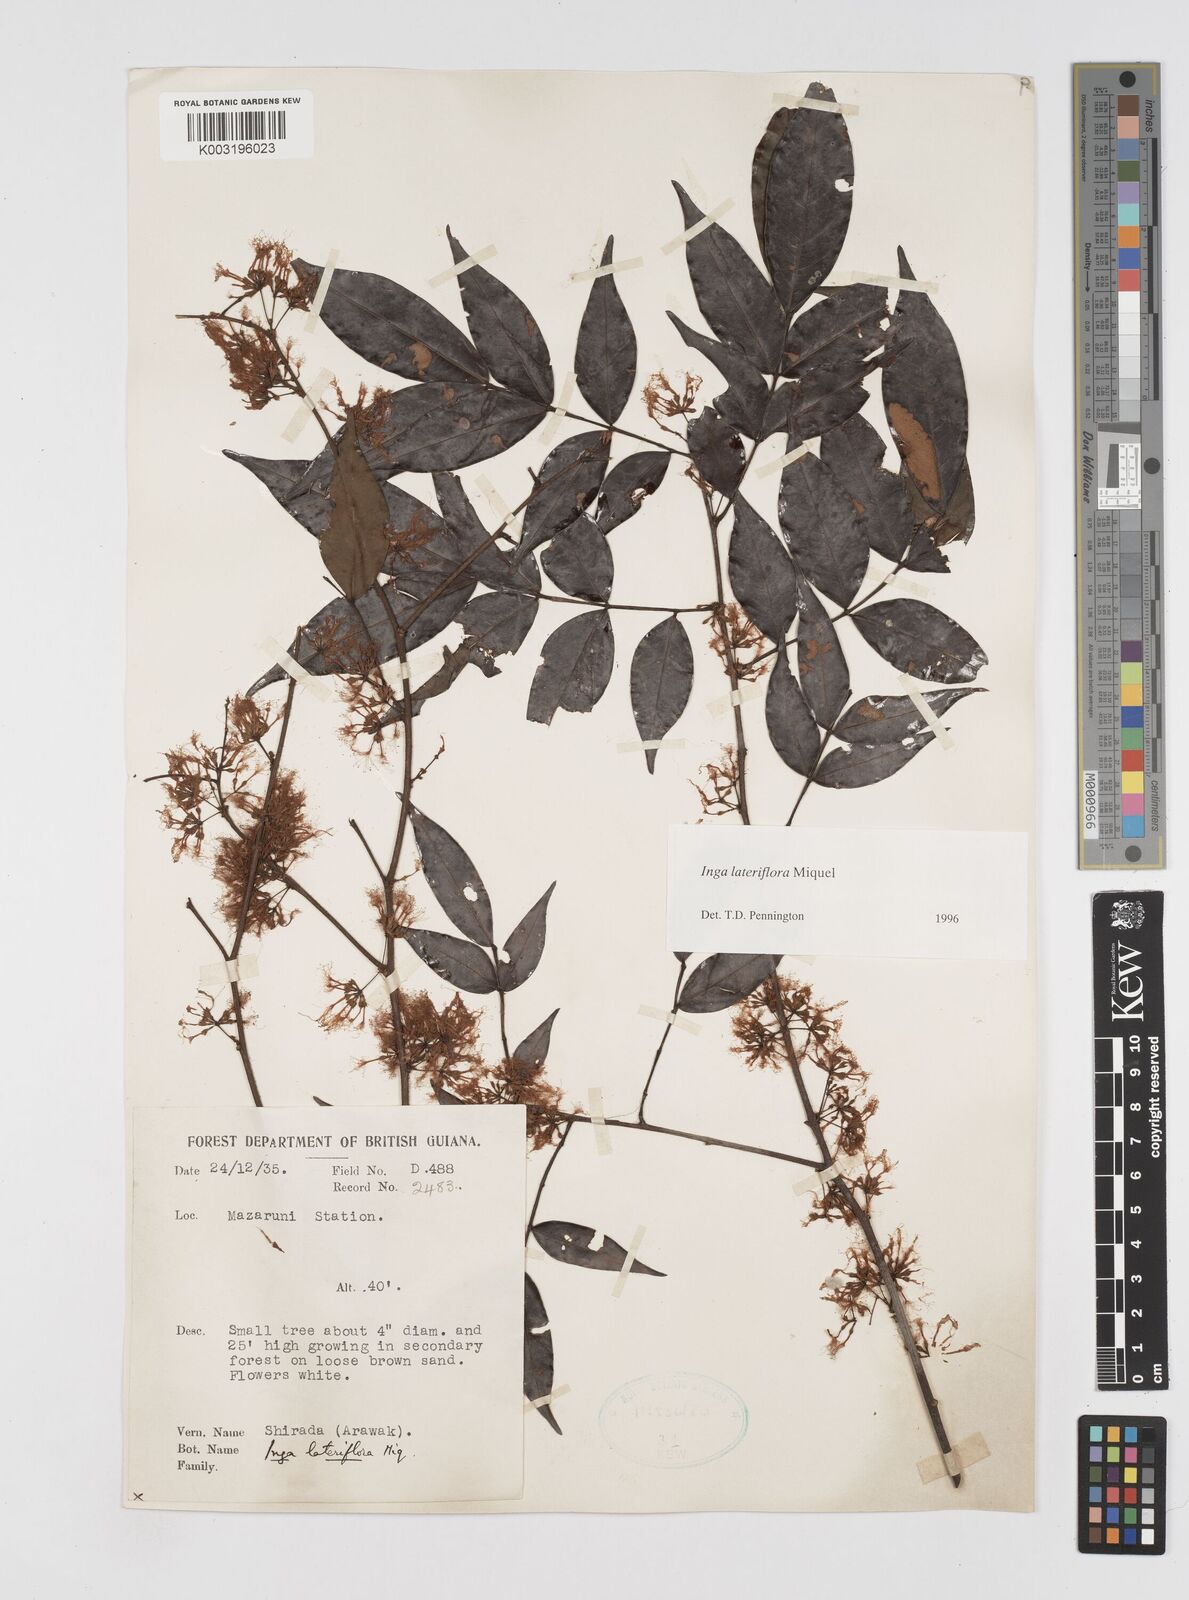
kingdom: Plantae
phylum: Tracheophyta
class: Magnoliopsida
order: Fabales
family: Fabaceae
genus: Inga
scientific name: Inga lateriflora
